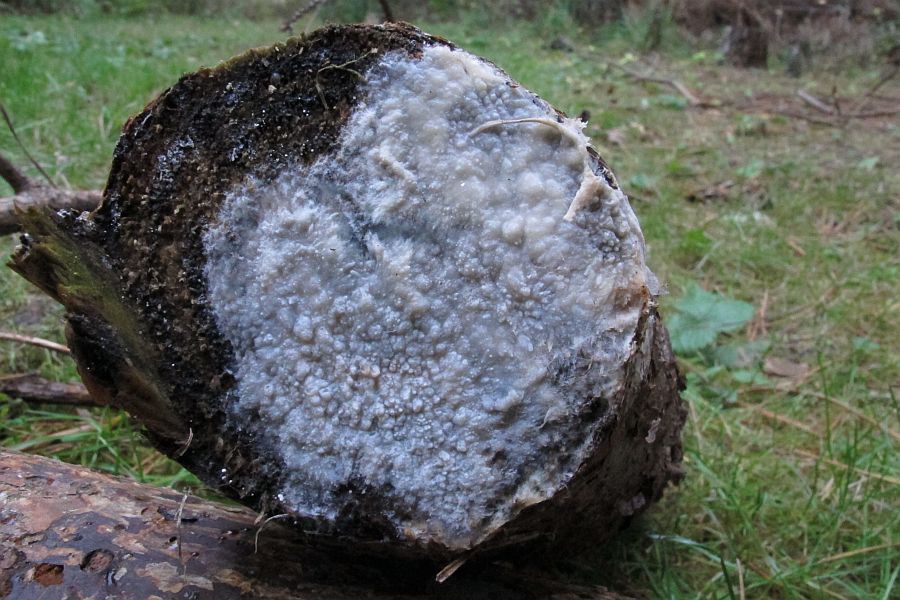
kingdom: Fungi
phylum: Basidiomycota
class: Agaricomycetes
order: Polyporales
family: Phanerochaetaceae
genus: Phlebiopsis
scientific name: Phlebiopsis gigantea
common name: kæmpebarksvamp
